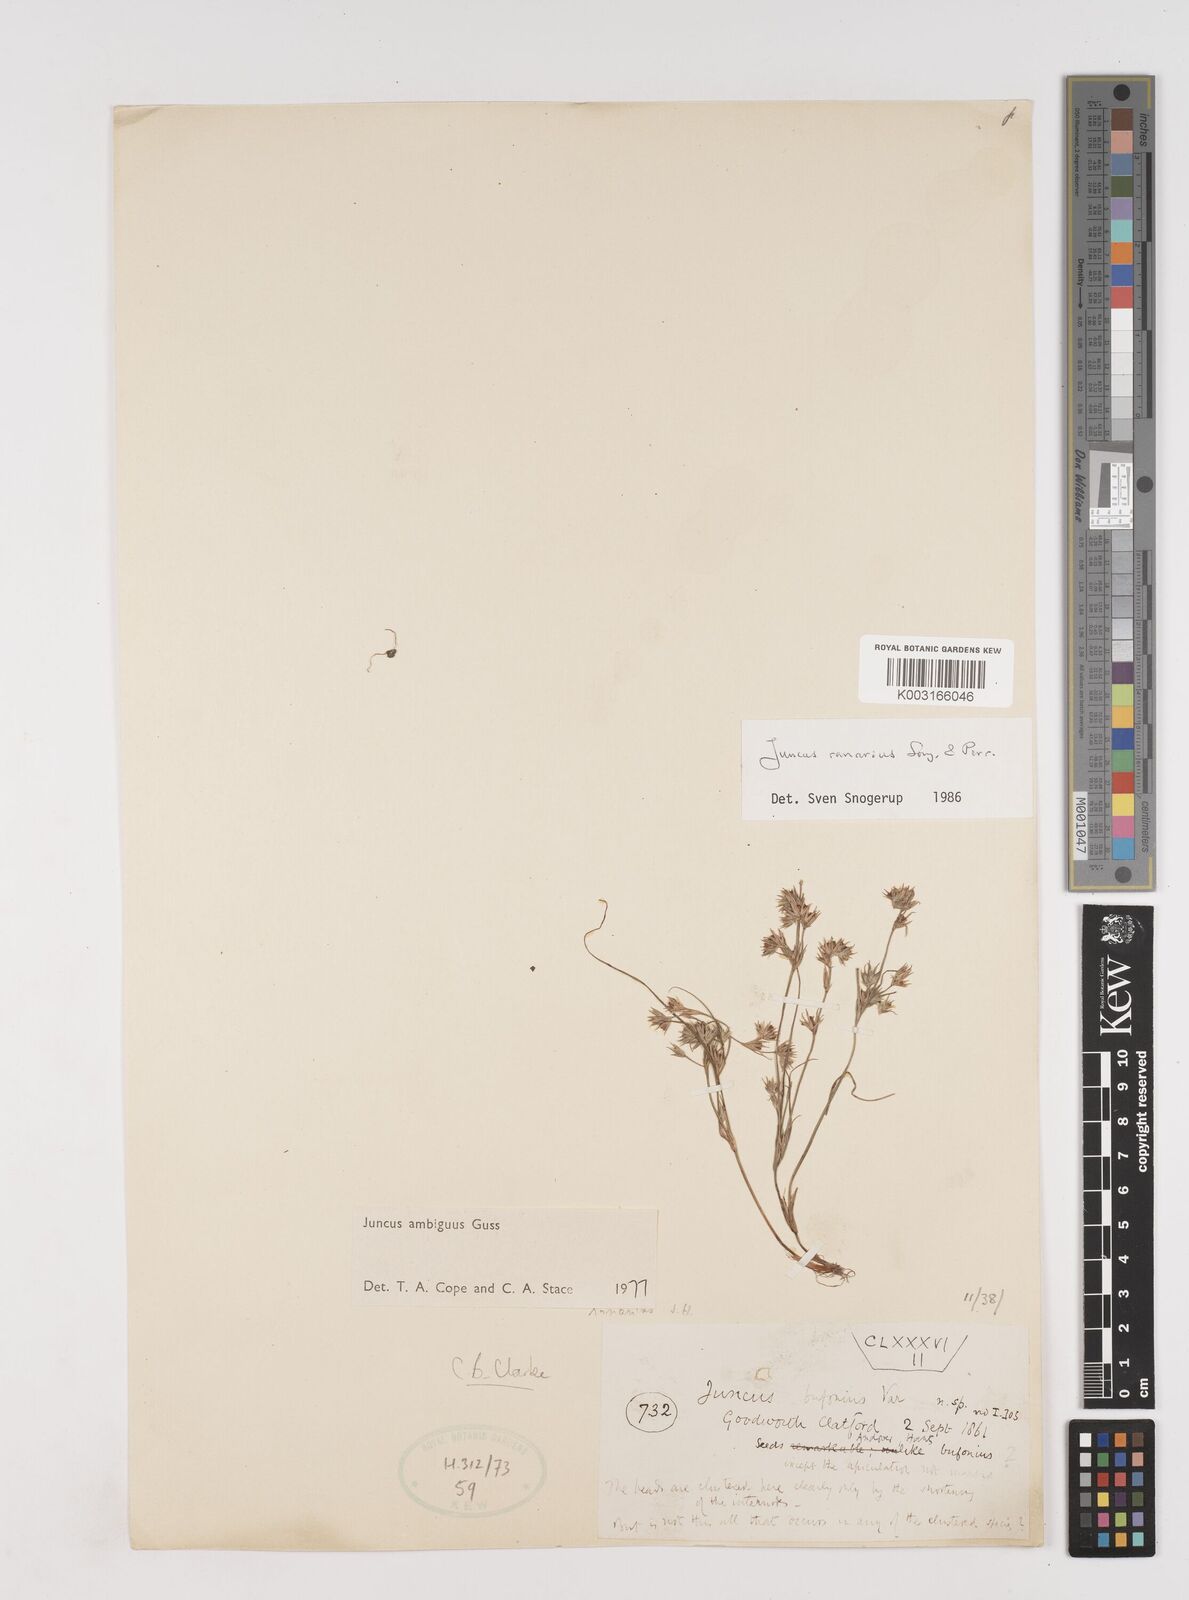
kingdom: Plantae
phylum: Tracheophyta
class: Liliopsida
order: Poales
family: Juncaceae
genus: Juncus
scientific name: Juncus hybridus
